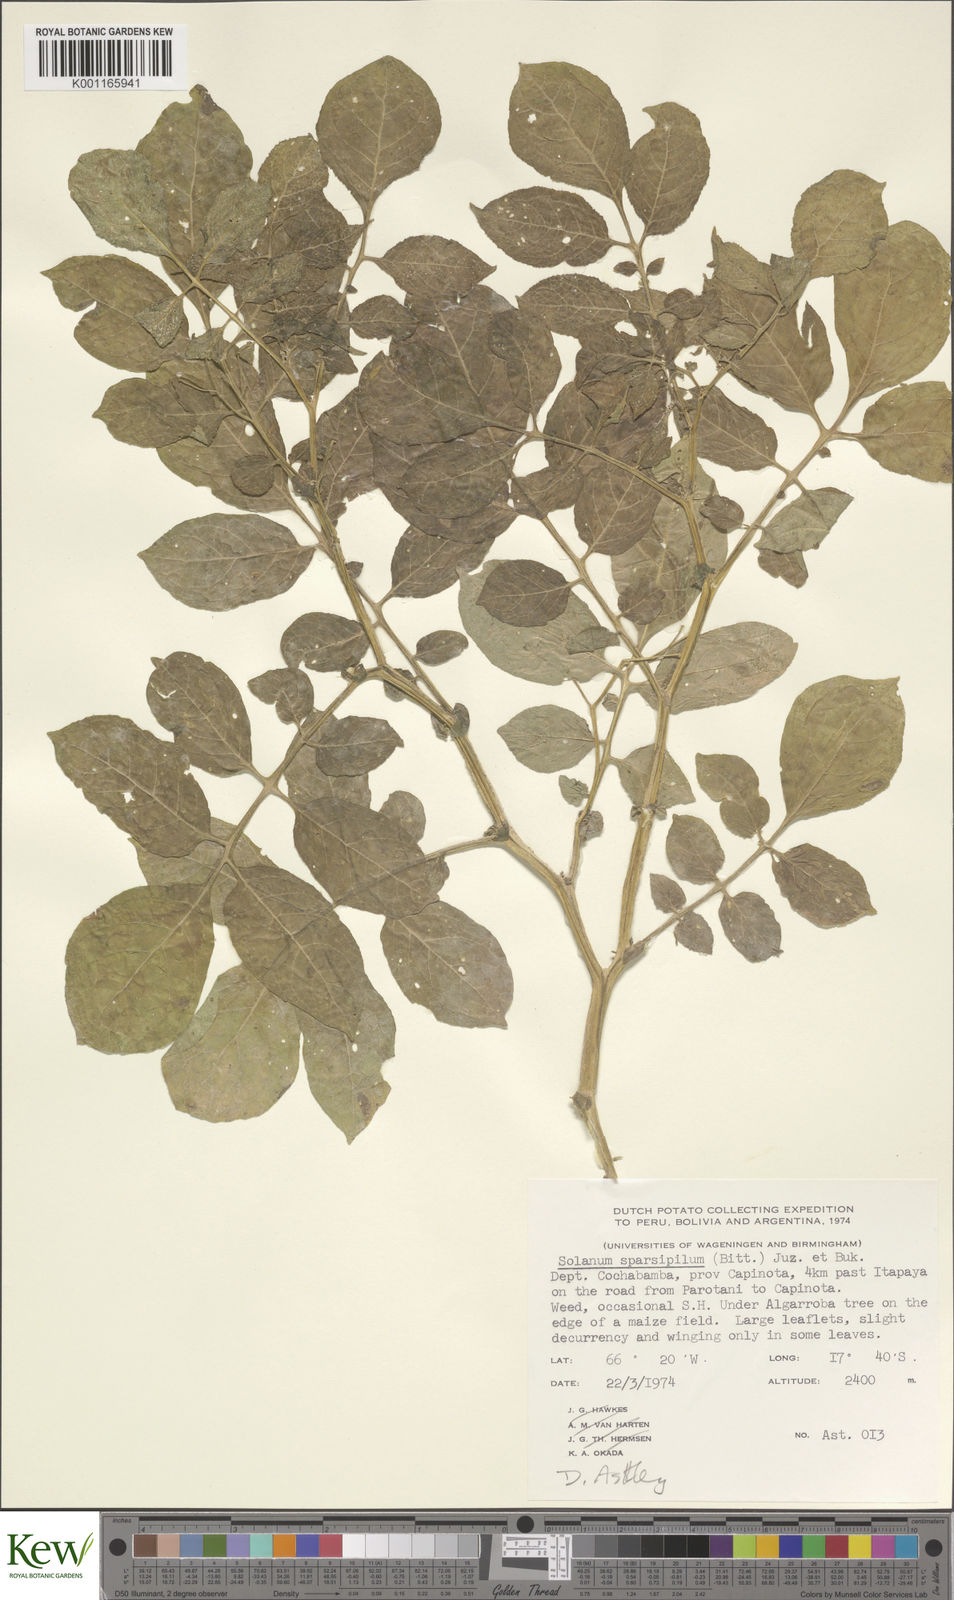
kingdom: Plantae
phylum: Tracheophyta
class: Magnoliopsida
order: Solanales
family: Solanaceae
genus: Solanum
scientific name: Solanum brevicaule
